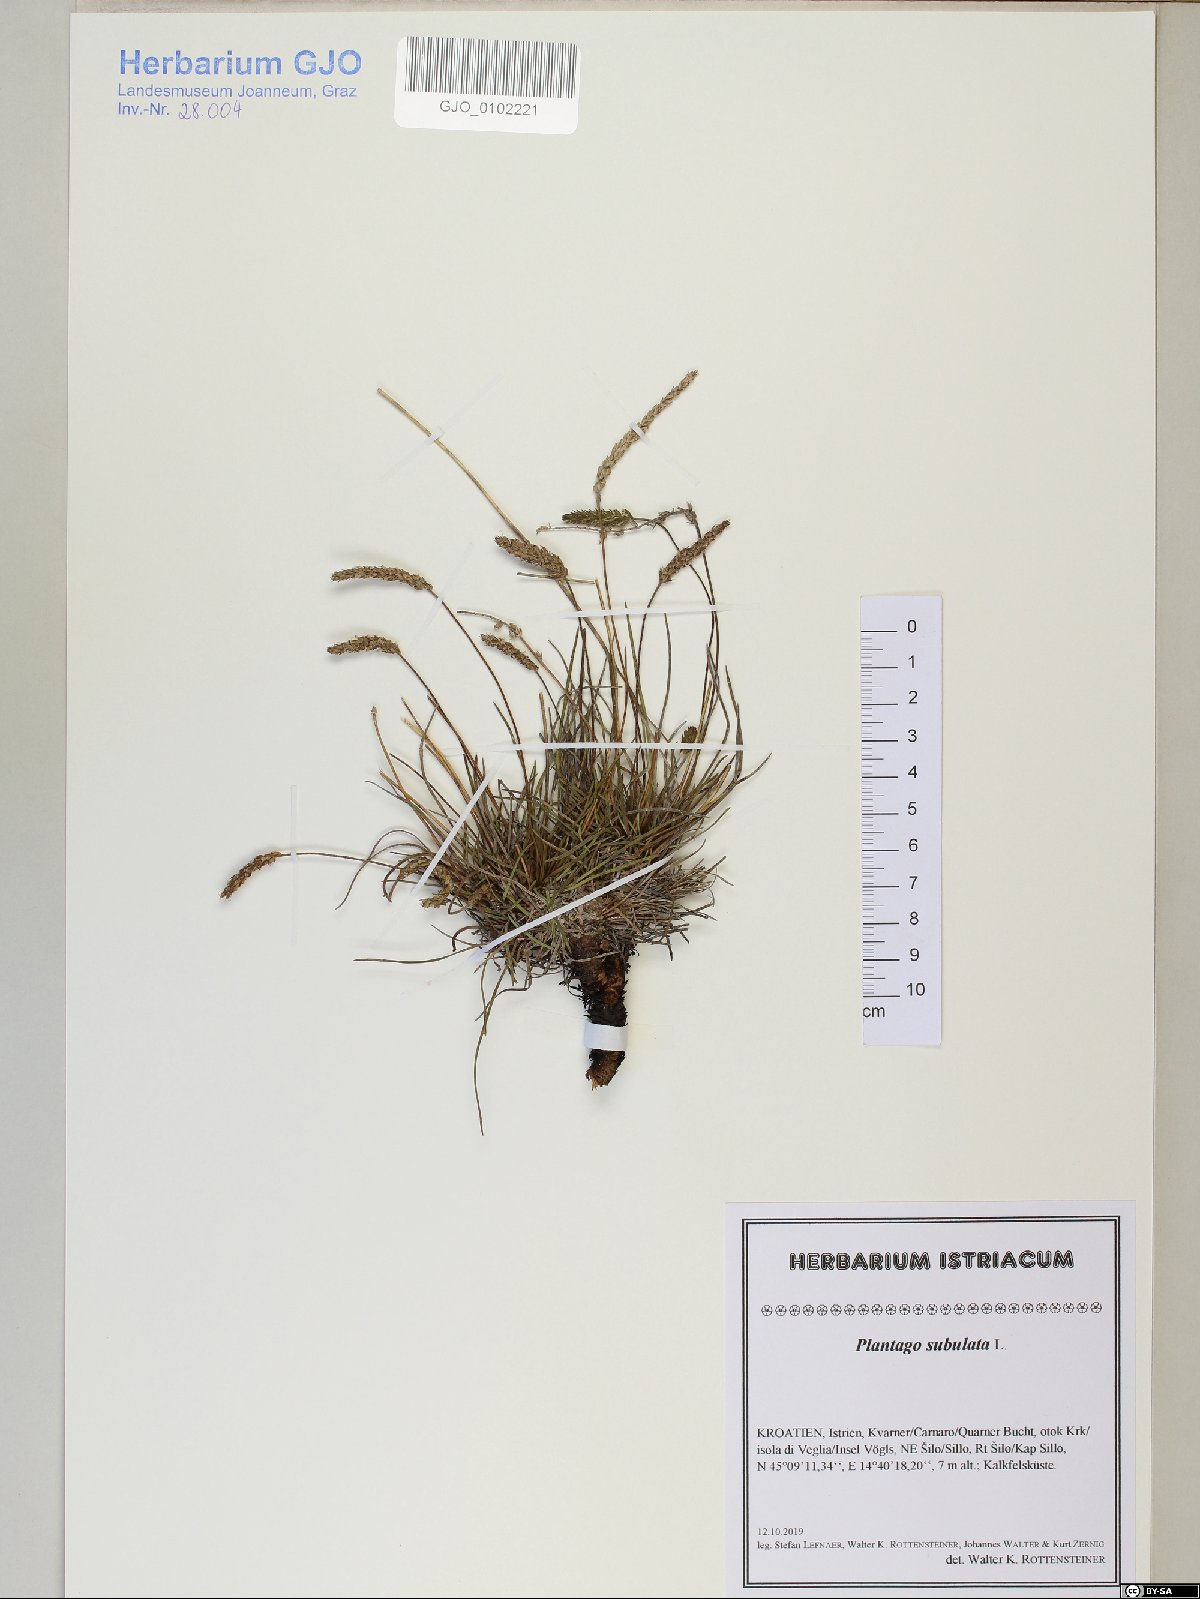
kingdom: Plantae
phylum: Tracheophyta
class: Magnoliopsida
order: Lamiales
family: Plantaginaceae
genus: Plantago
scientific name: Plantago subulata
